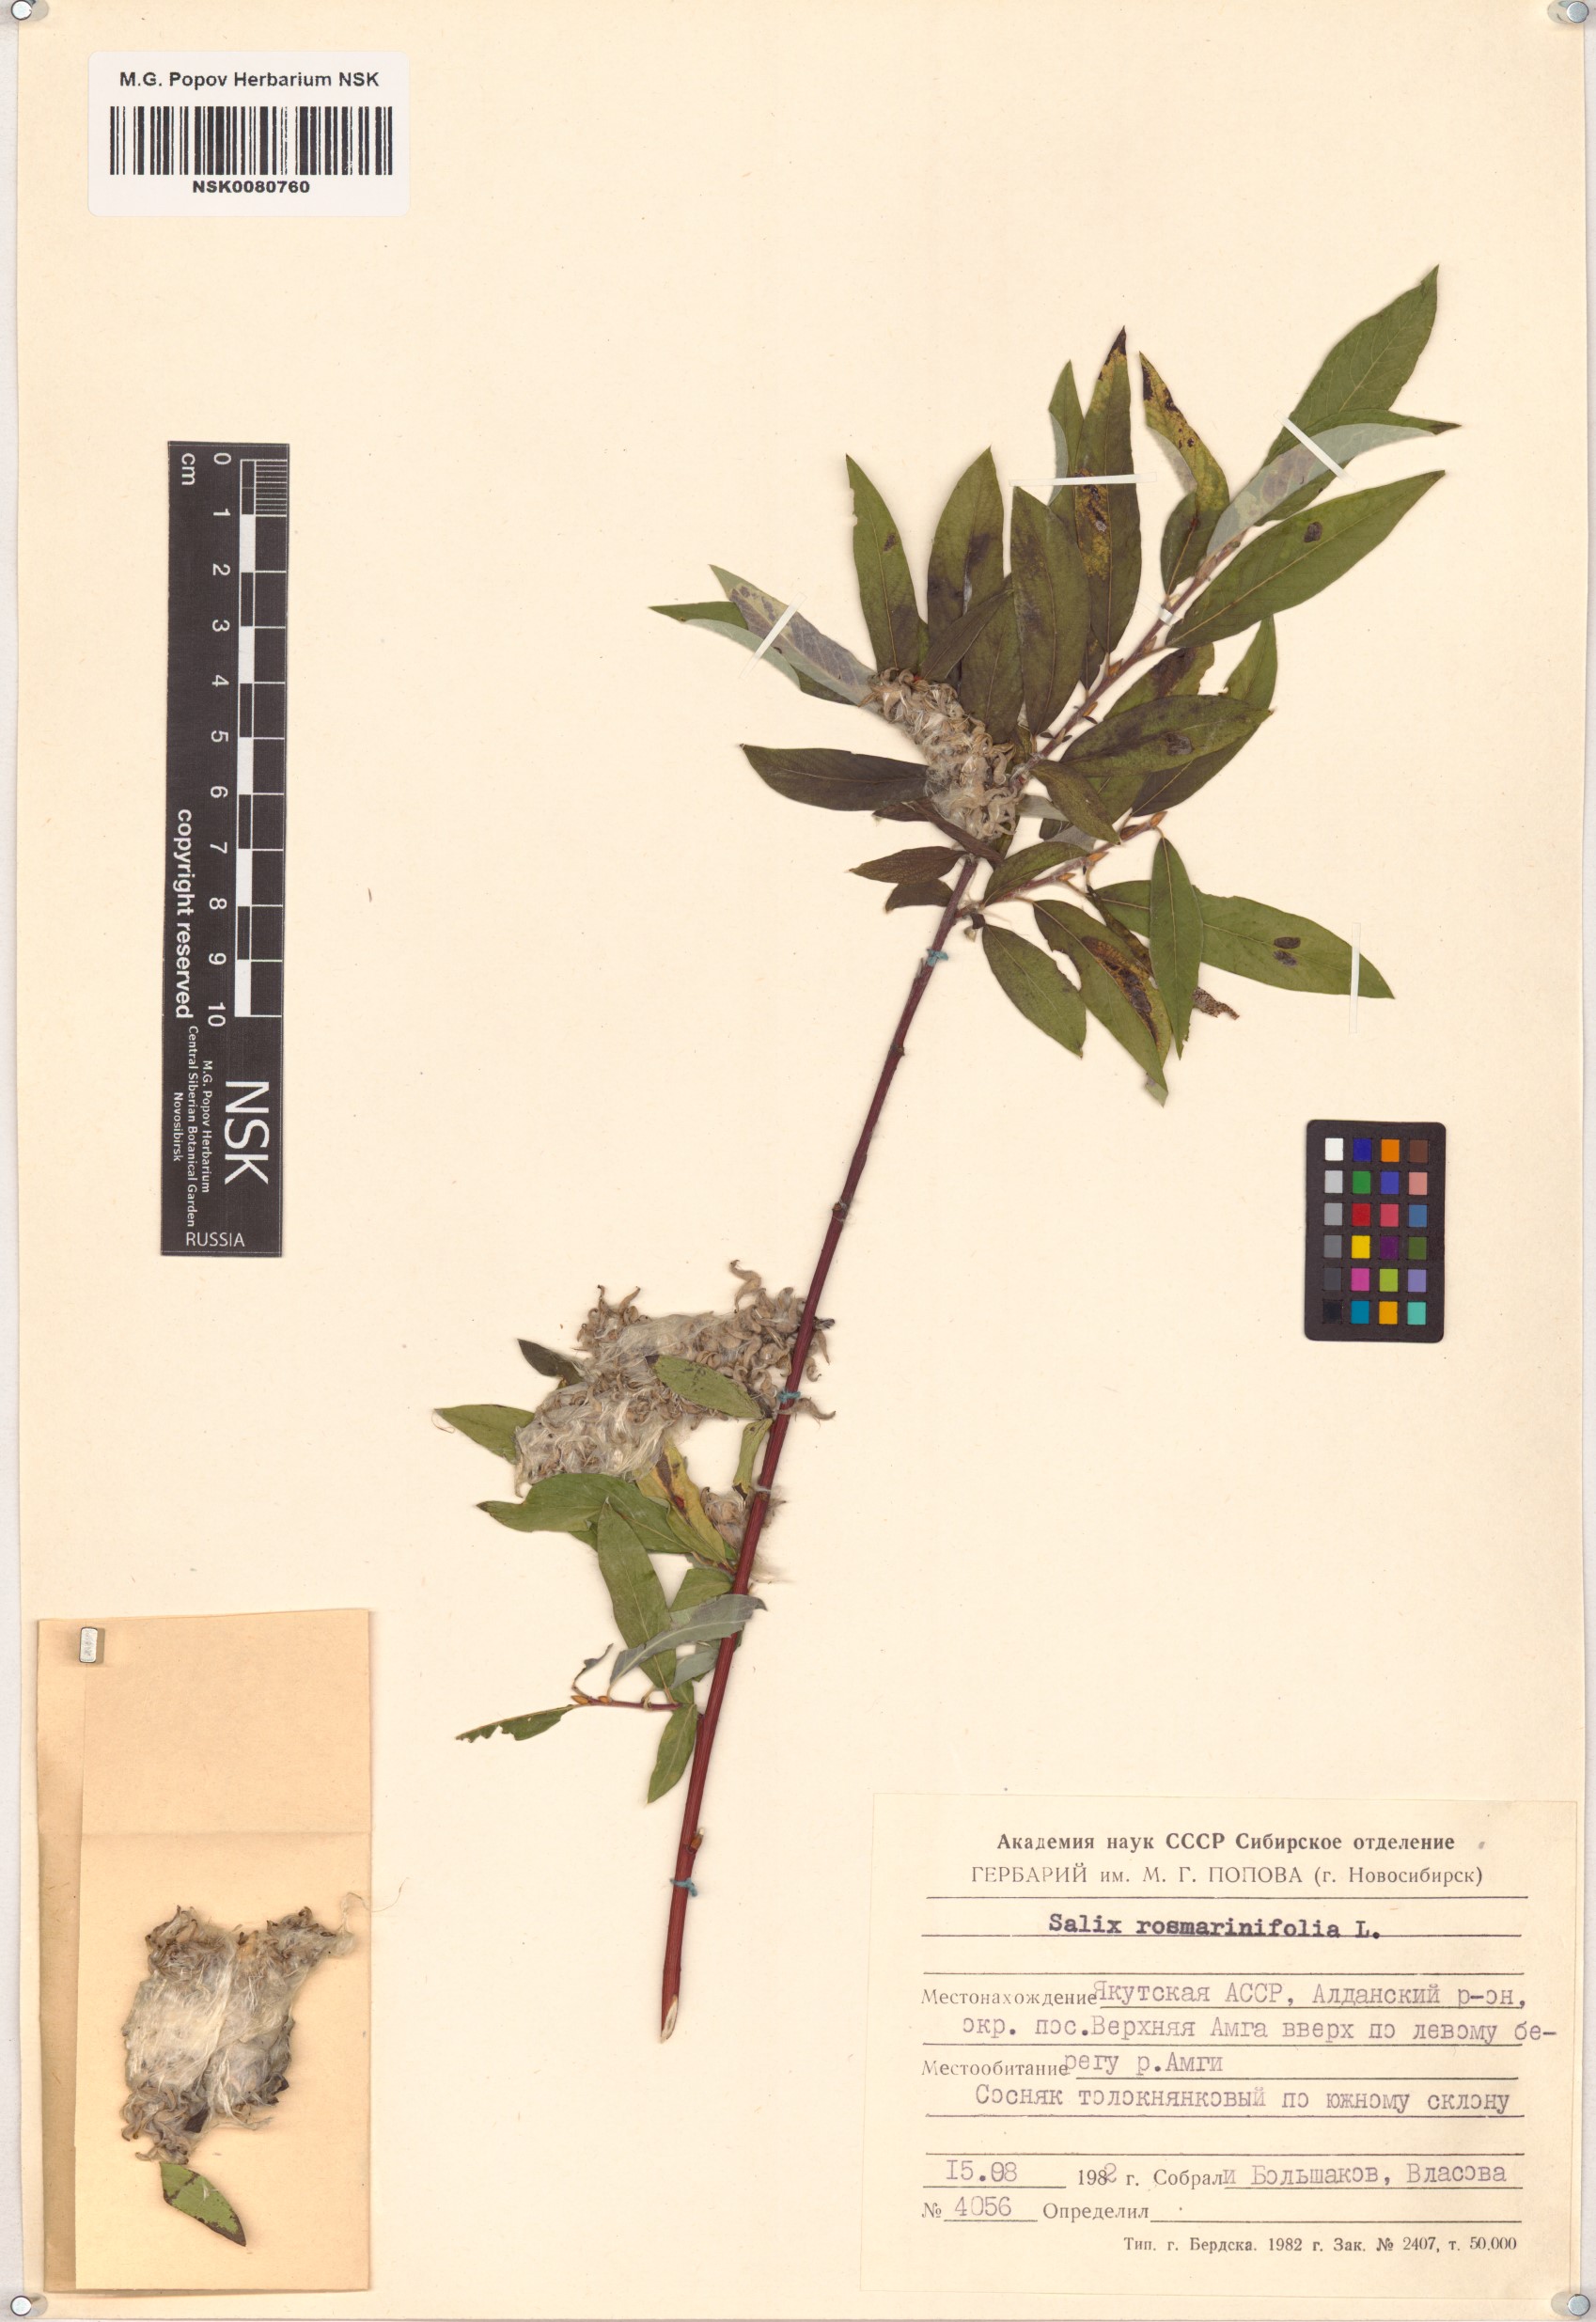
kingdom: Plantae
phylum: Tracheophyta
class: Magnoliopsida
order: Malpighiales
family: Salicaceae
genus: Salix
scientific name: Salix rosmarinifolia
